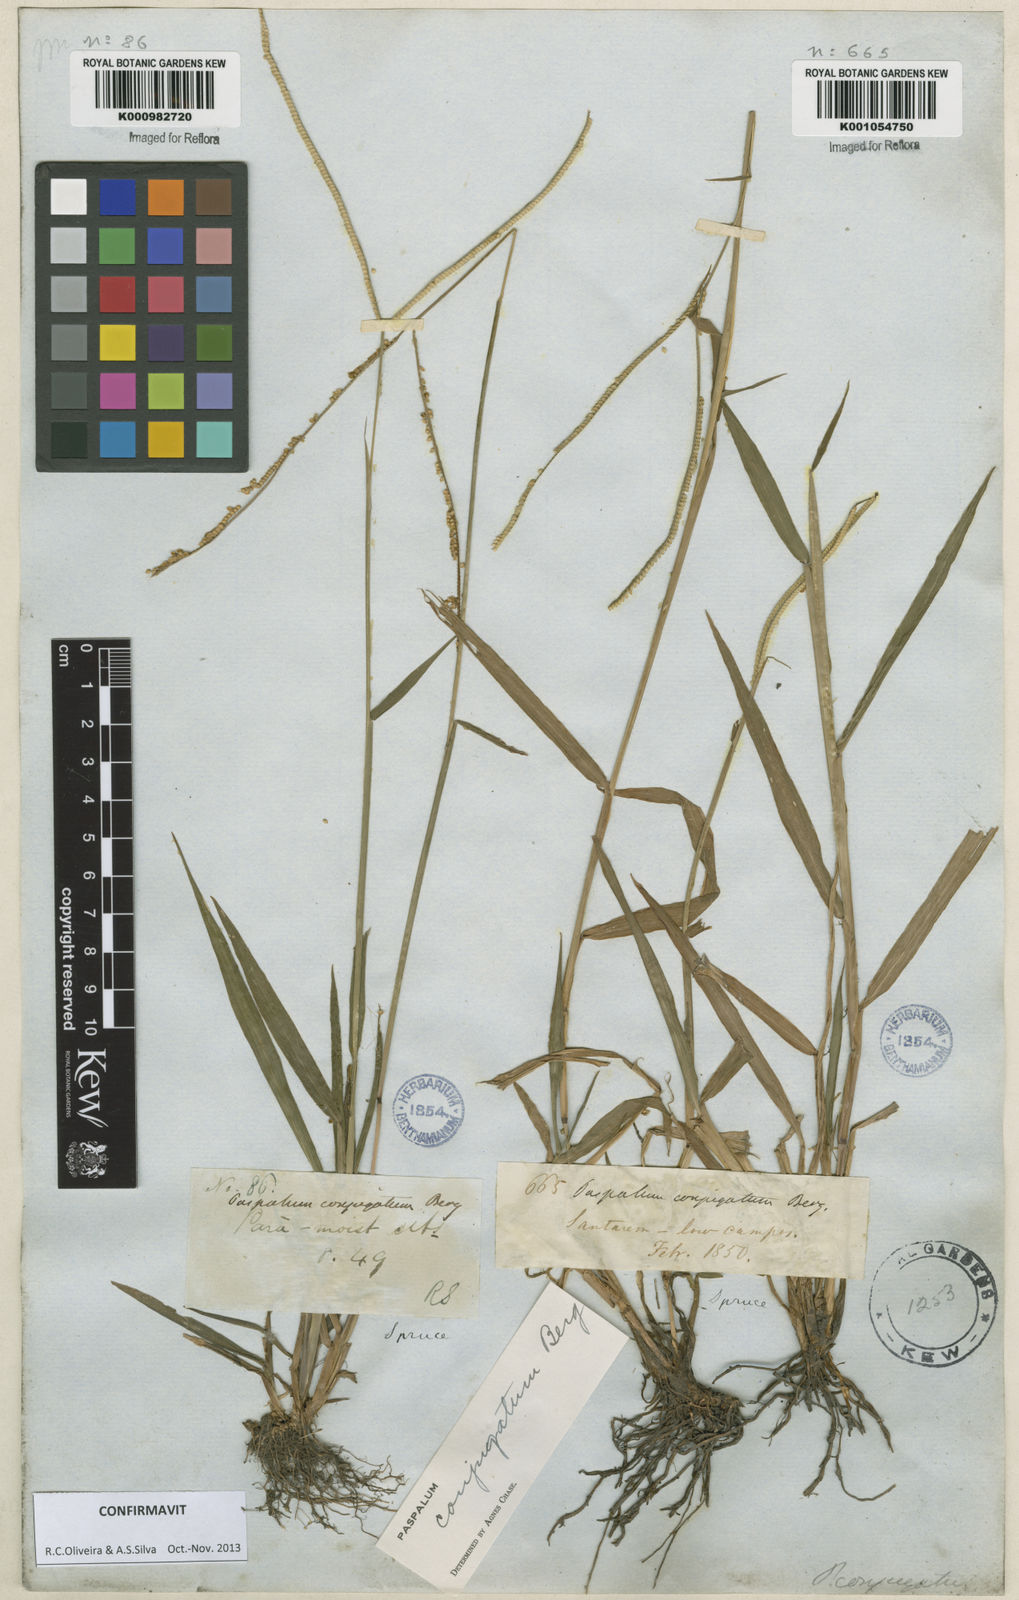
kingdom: Plantae
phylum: Tracheophyta
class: Liliopsida
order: Poales
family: Poaceae
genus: Paspalum
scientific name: Paspalum conjugatum
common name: Hilograss
